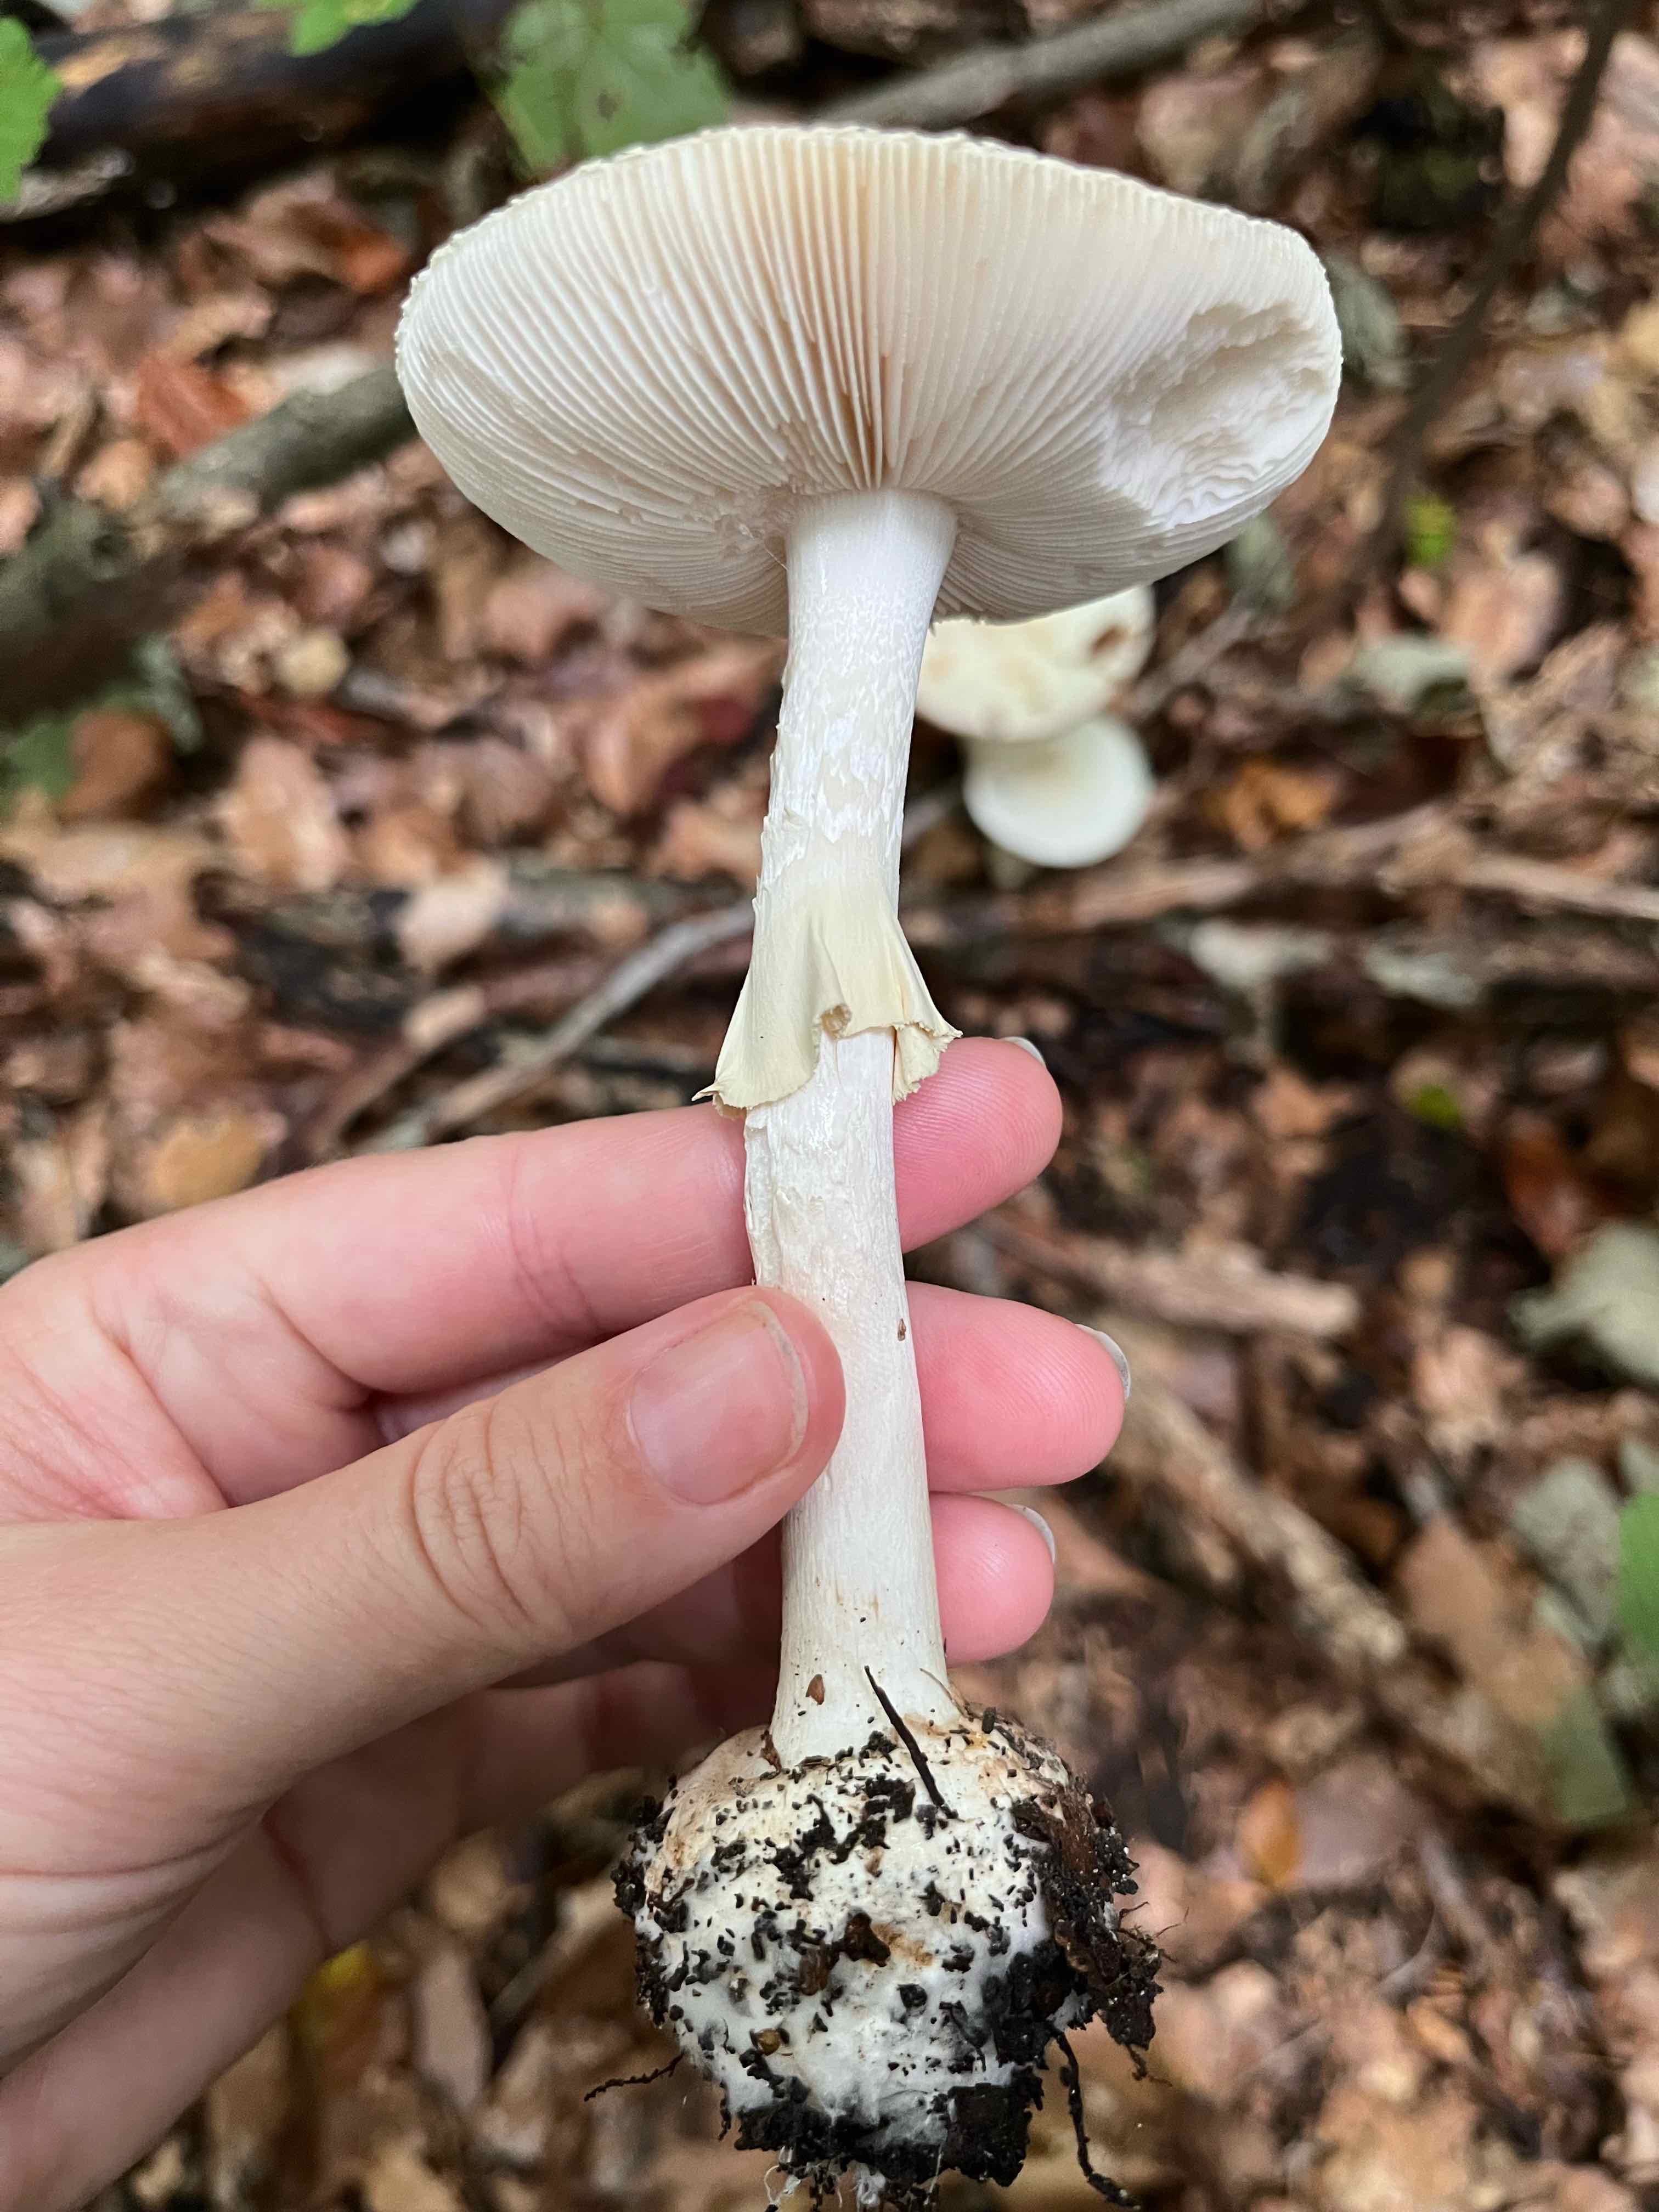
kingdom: Fungi
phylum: Basidiomycota
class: Agaricomycetes
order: Agaricales
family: Amanitaceae
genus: Amanita
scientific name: Amanita citrina
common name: kugleknoldet fluesvamp
